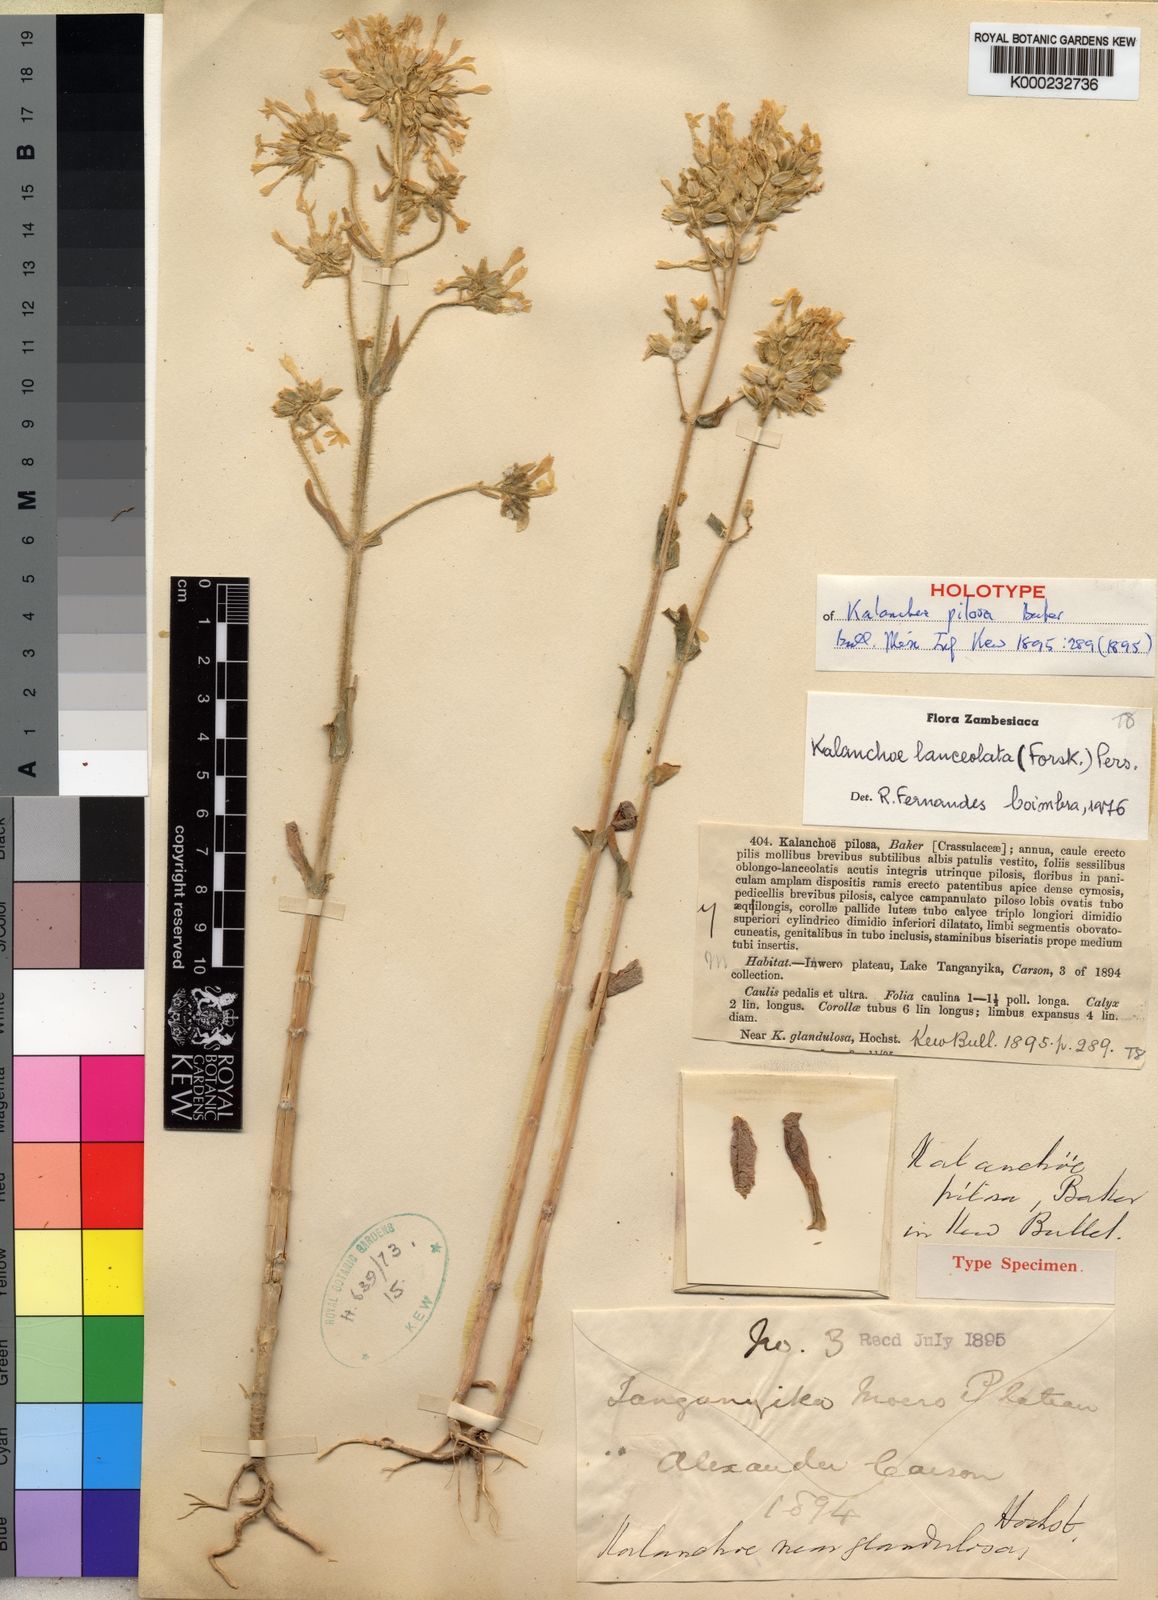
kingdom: Plantae
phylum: Tracheophyta
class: Magnoliopsida
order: Saxifragales
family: Crassulaceae
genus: Kalanchoe
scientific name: Kalanchoe lanceolata
